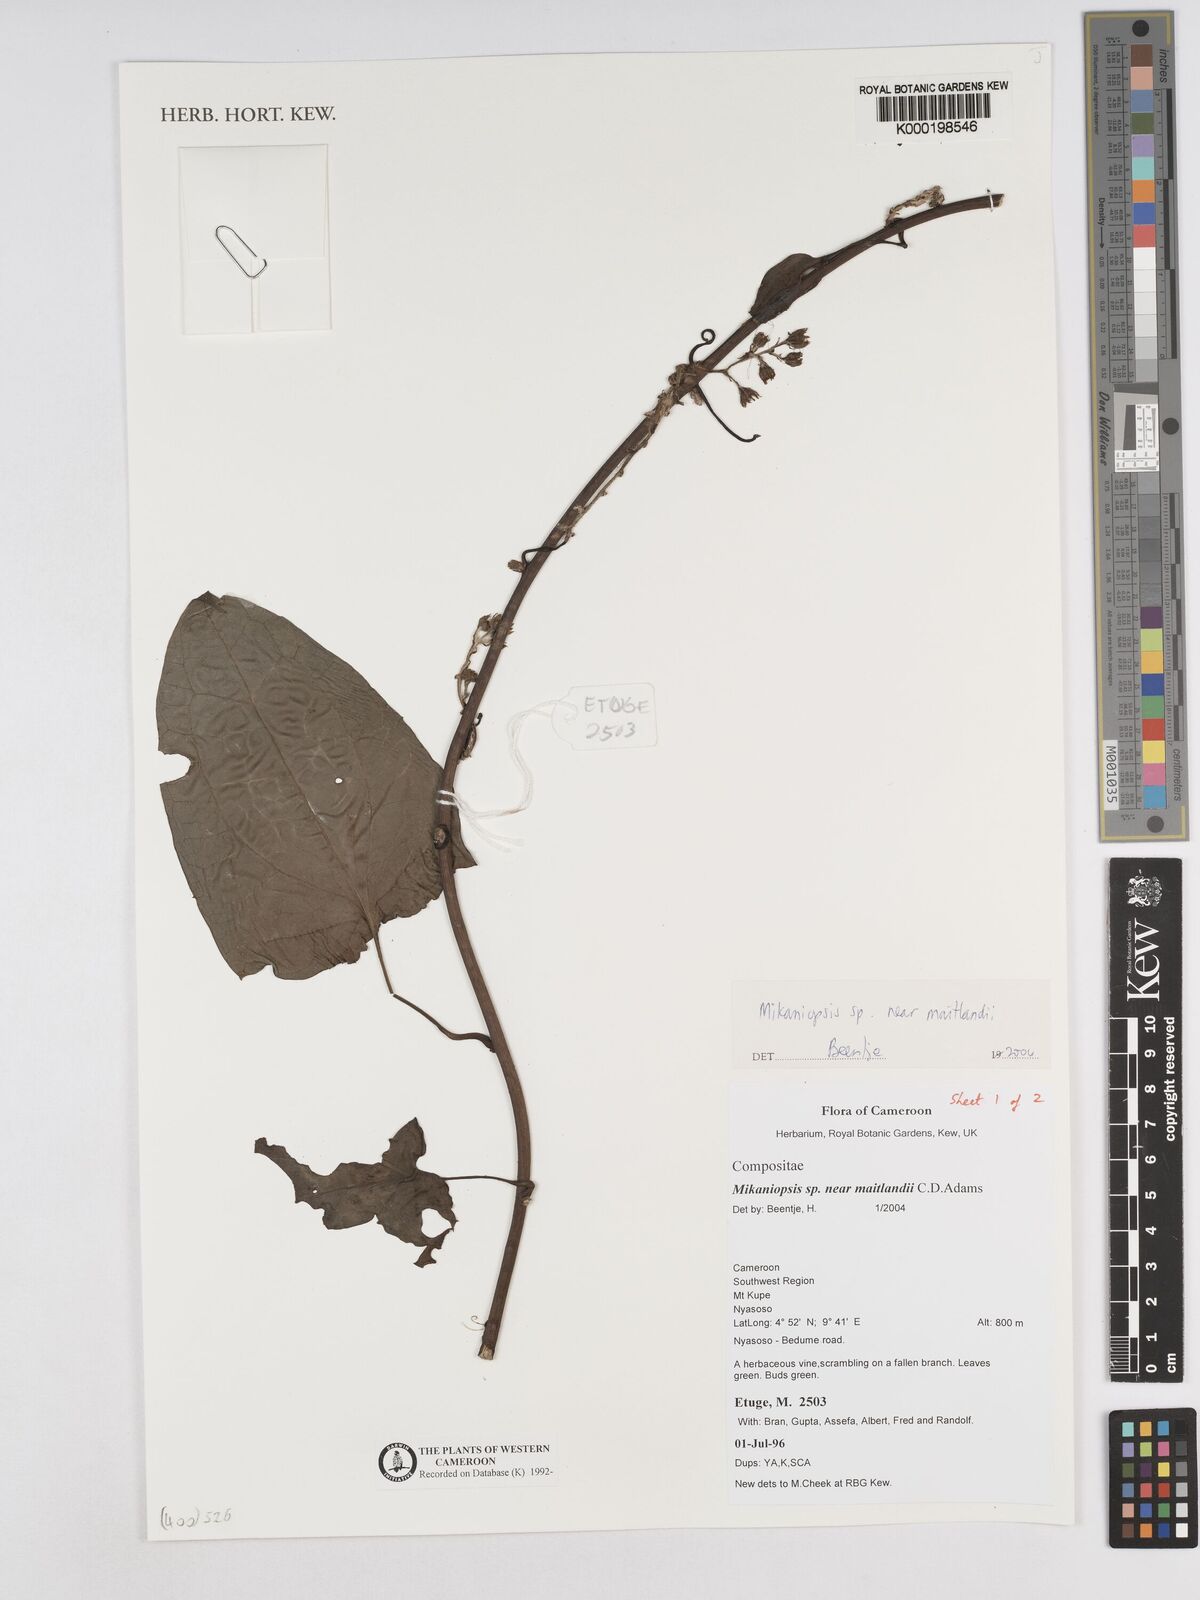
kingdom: Plantae
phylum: Tracheophyta
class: Magnoliopsida
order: Asterales
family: Asteraceae
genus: Mikaniopsis
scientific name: Mikaniopsis
